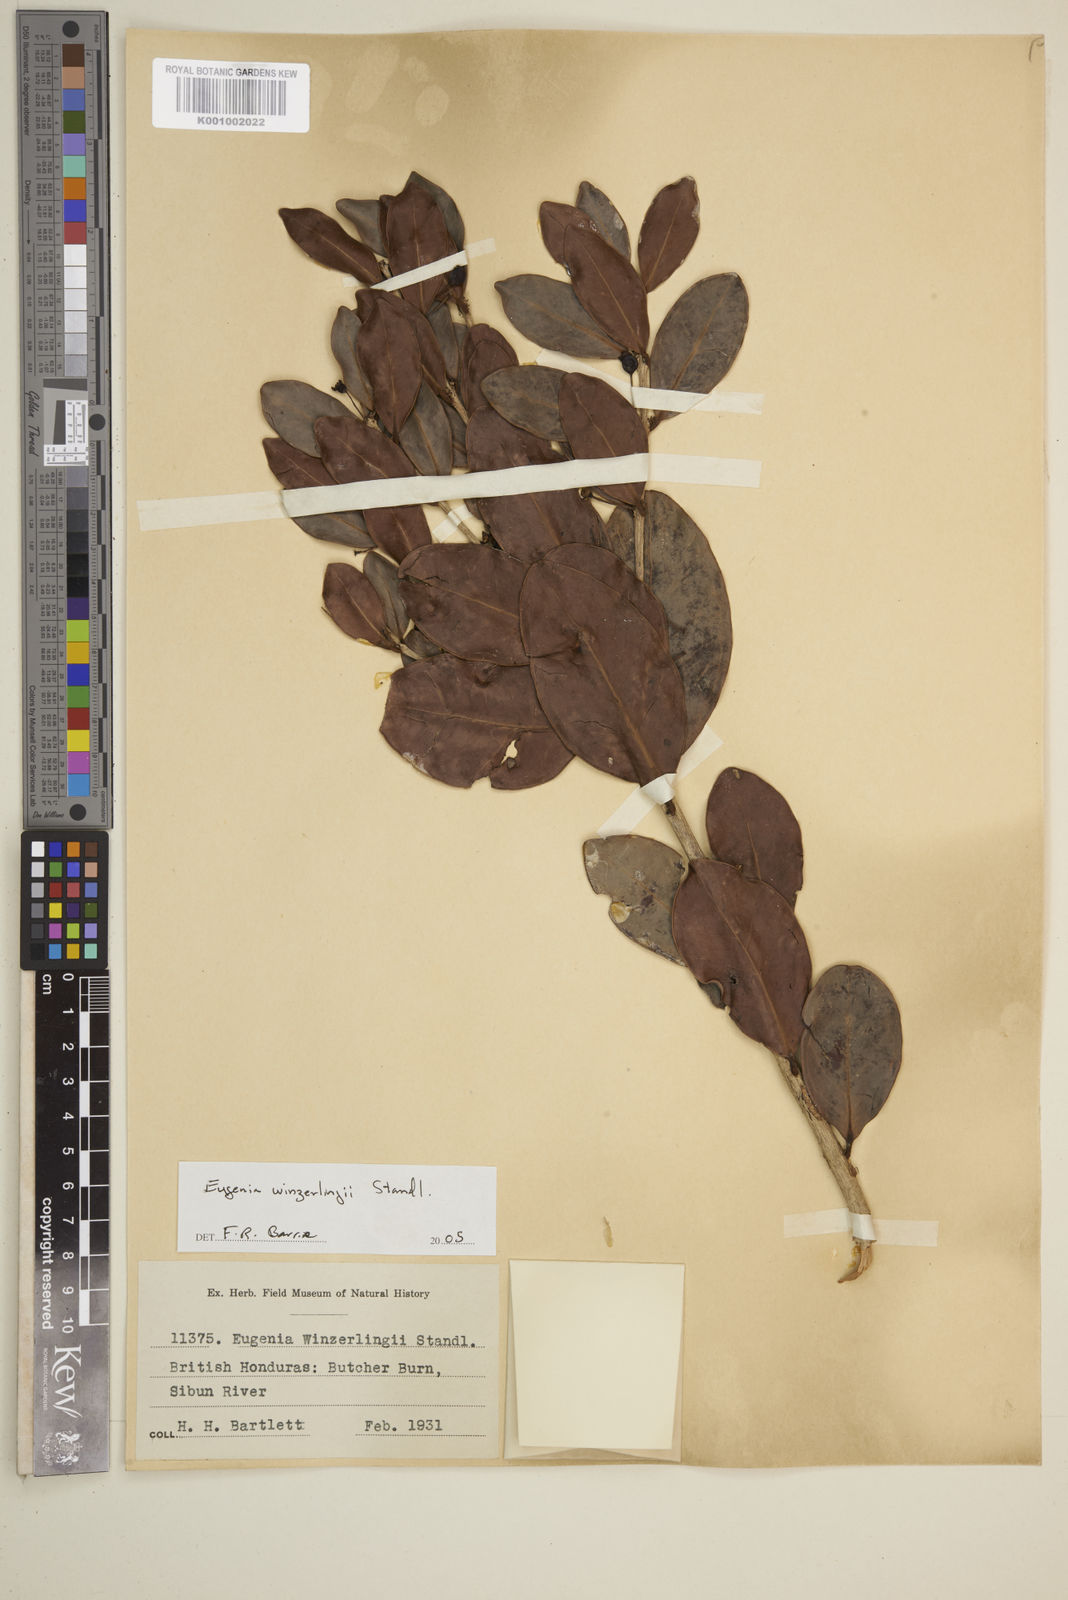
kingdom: Plantae
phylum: Tracheophyta
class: Magnoliopsida
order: Myrtales
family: Myrtaceae
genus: Eugenia
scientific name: Eugenia winzerlingii
